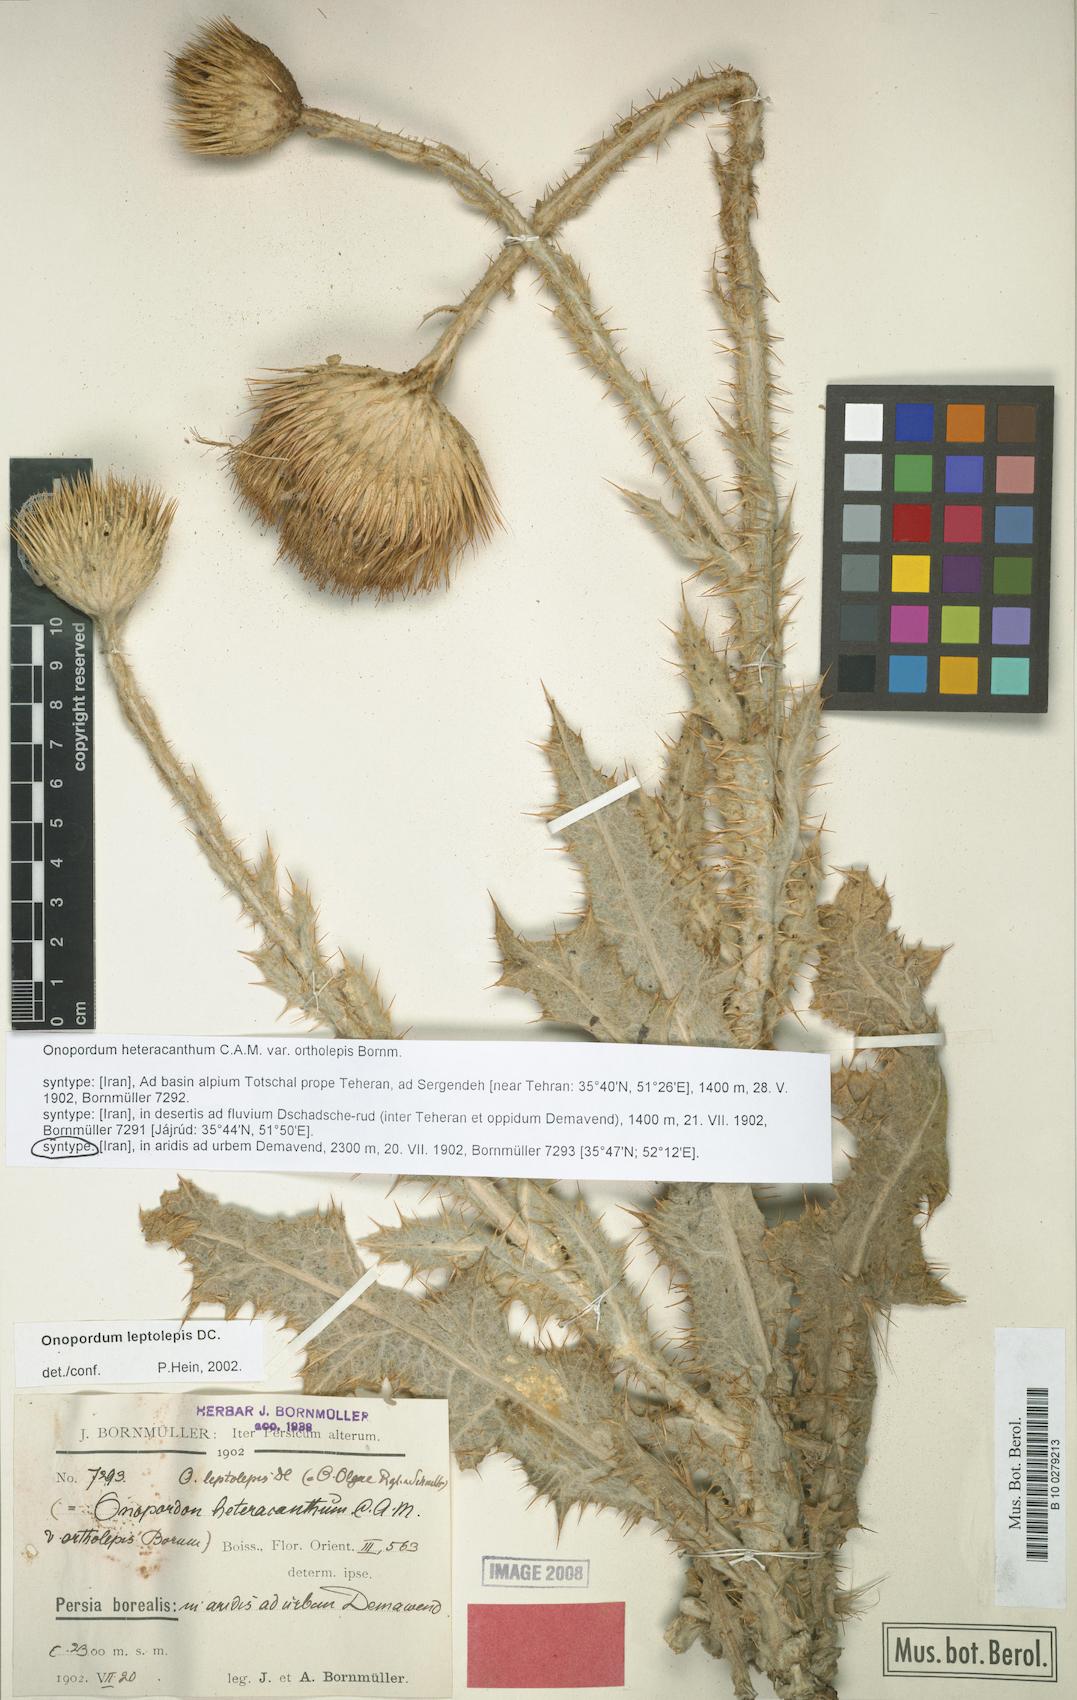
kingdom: Plantae
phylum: Tracheophyta
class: Magnoliopsida
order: Asterales
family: Asteraceae
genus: Onopordum
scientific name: Onopordum leptolepis
